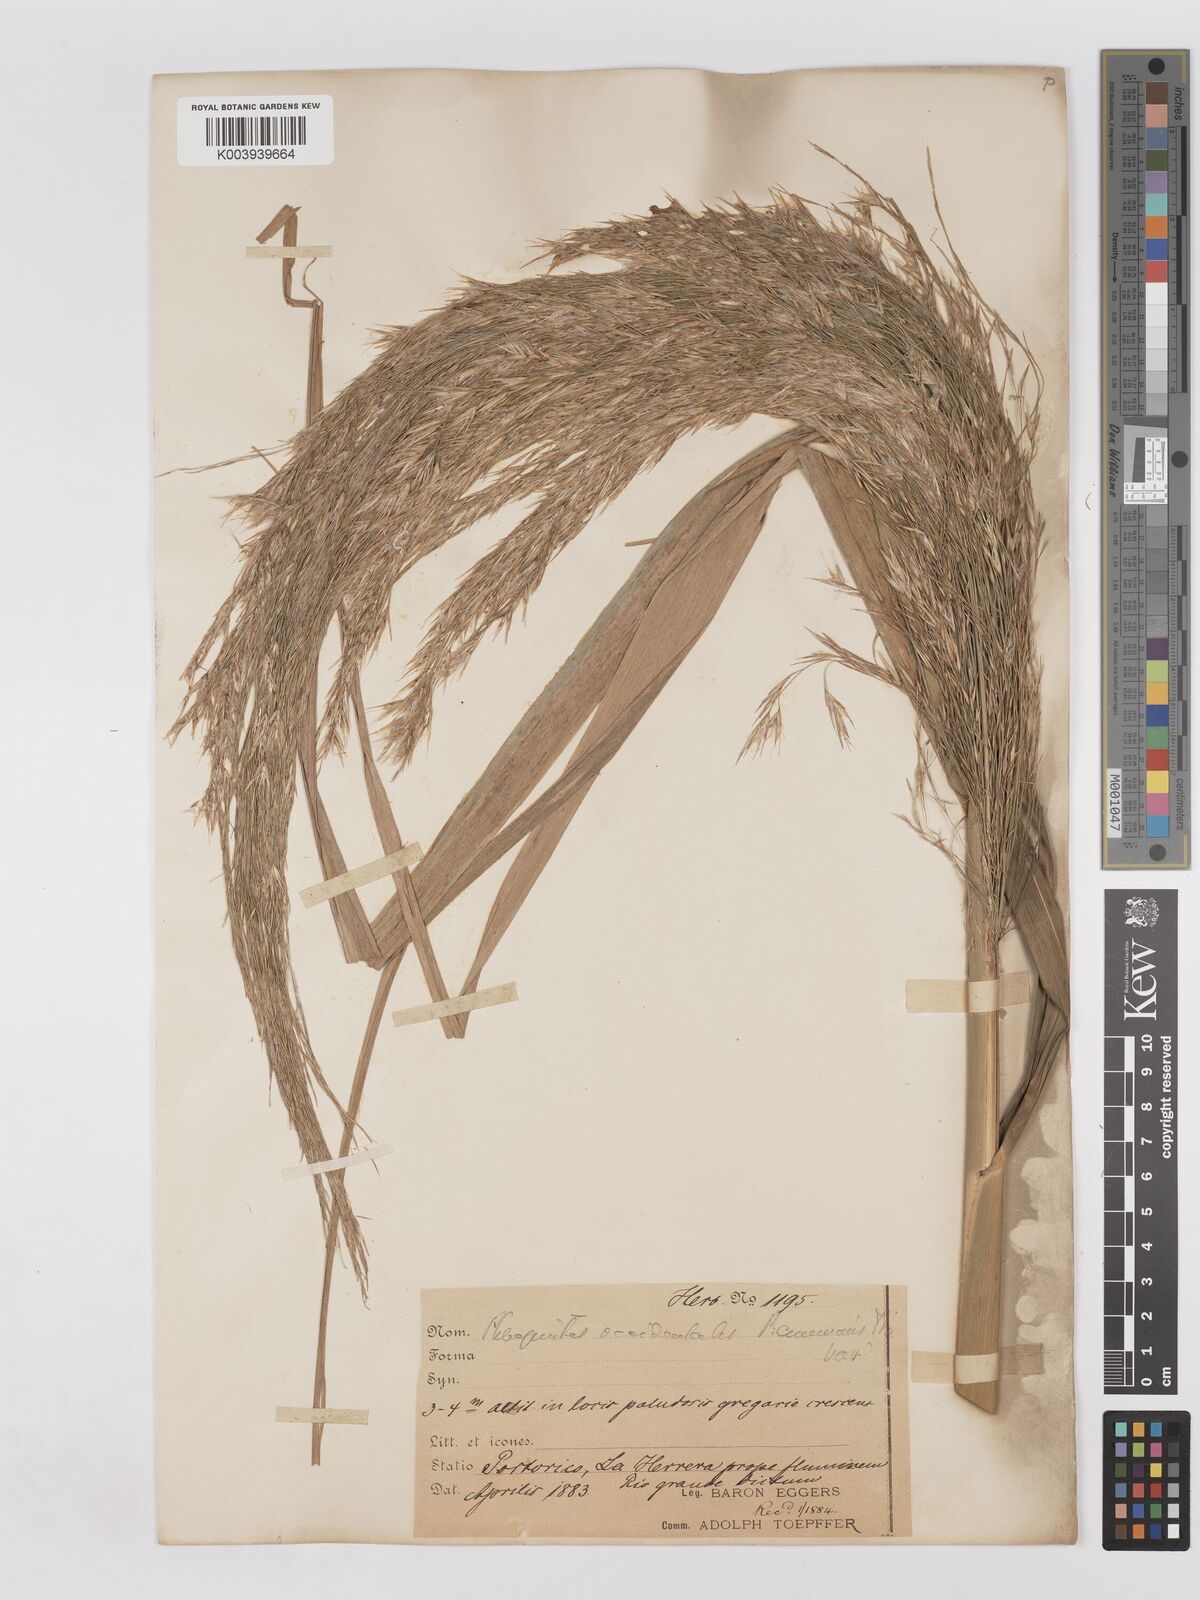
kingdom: Plantae
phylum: Tracheophyta
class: Liliopsida
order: Poales
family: Poaceae
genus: Phragmites
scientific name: Phragmites australis
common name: Common reed
